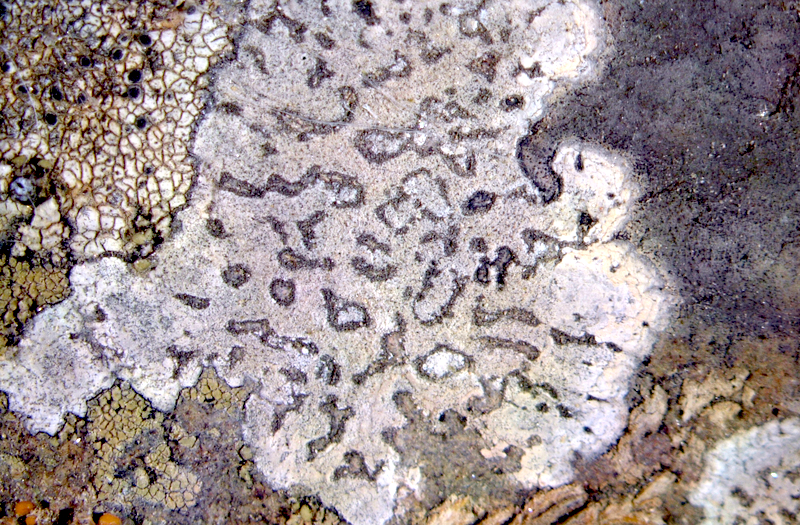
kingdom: Fungi
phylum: Ascomycota
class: Lecanoromycetes
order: Caliciales
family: Caliciaceae
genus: Buellia
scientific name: Buellia
